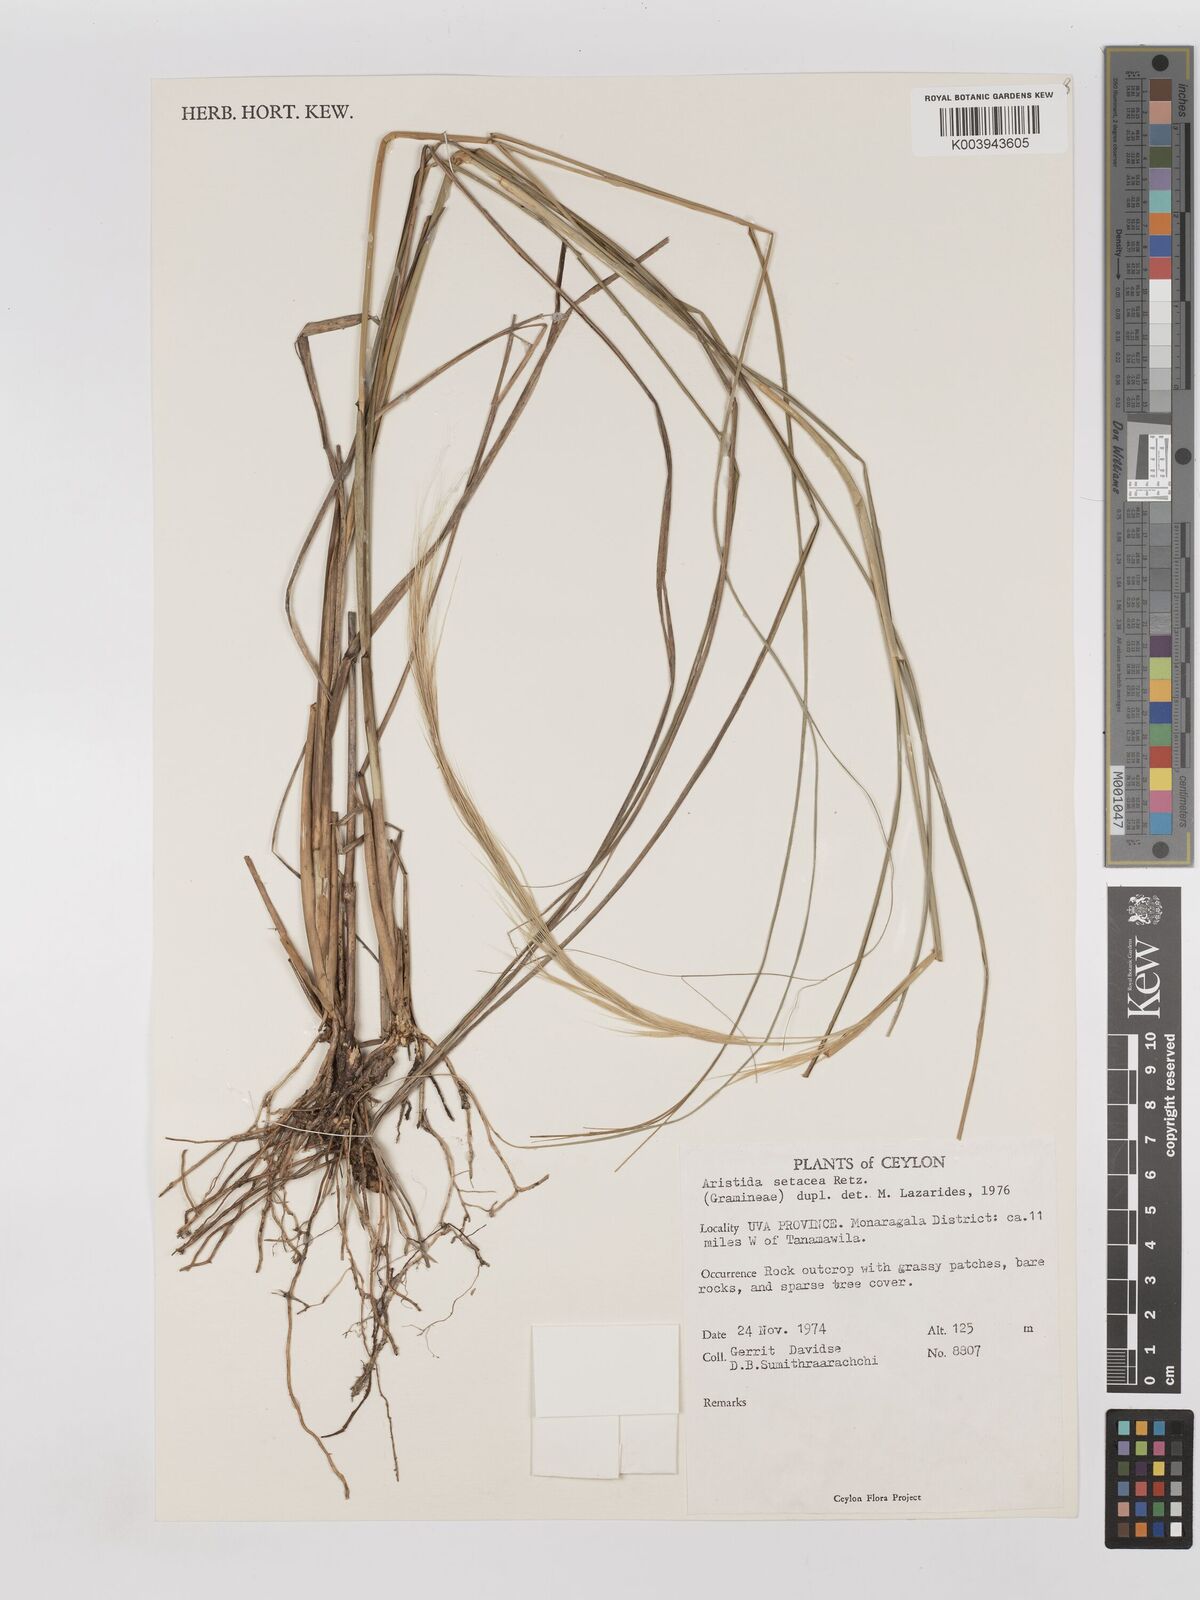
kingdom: Plantae
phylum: Tracheophyta
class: Liliopsida
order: Poales
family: Poaceae
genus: Aristida
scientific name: Aristida setacea
